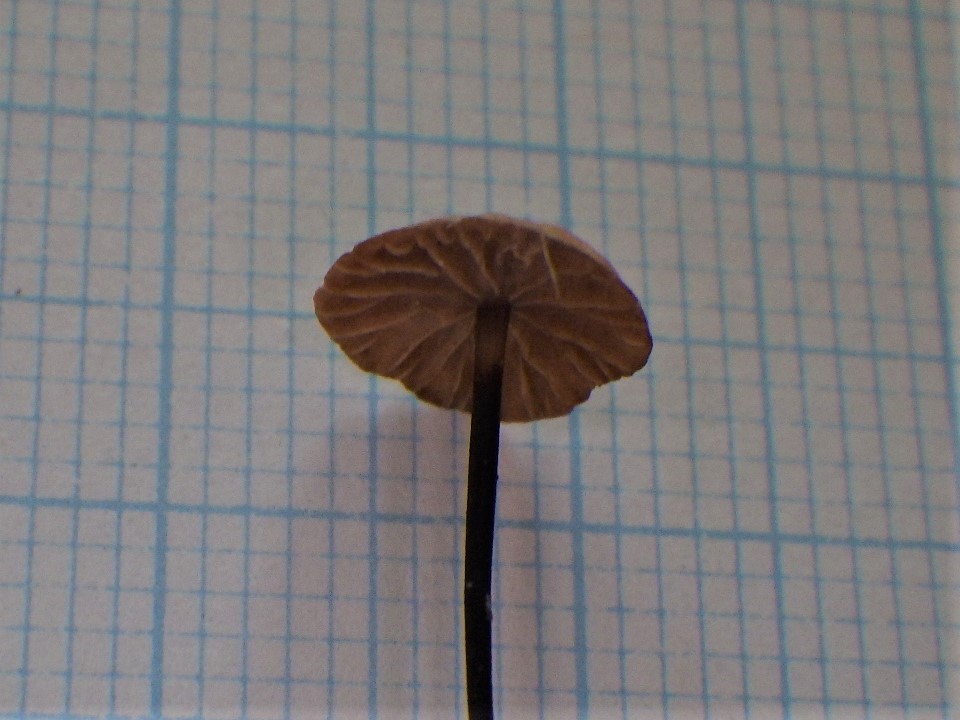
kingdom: Fungi
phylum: Basidiomycota
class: Agaricomycetes
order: Agaricales
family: Omphalotaceae
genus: Gymnopus
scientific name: Gymnopus androsaceus
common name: trådstokket fladhat
